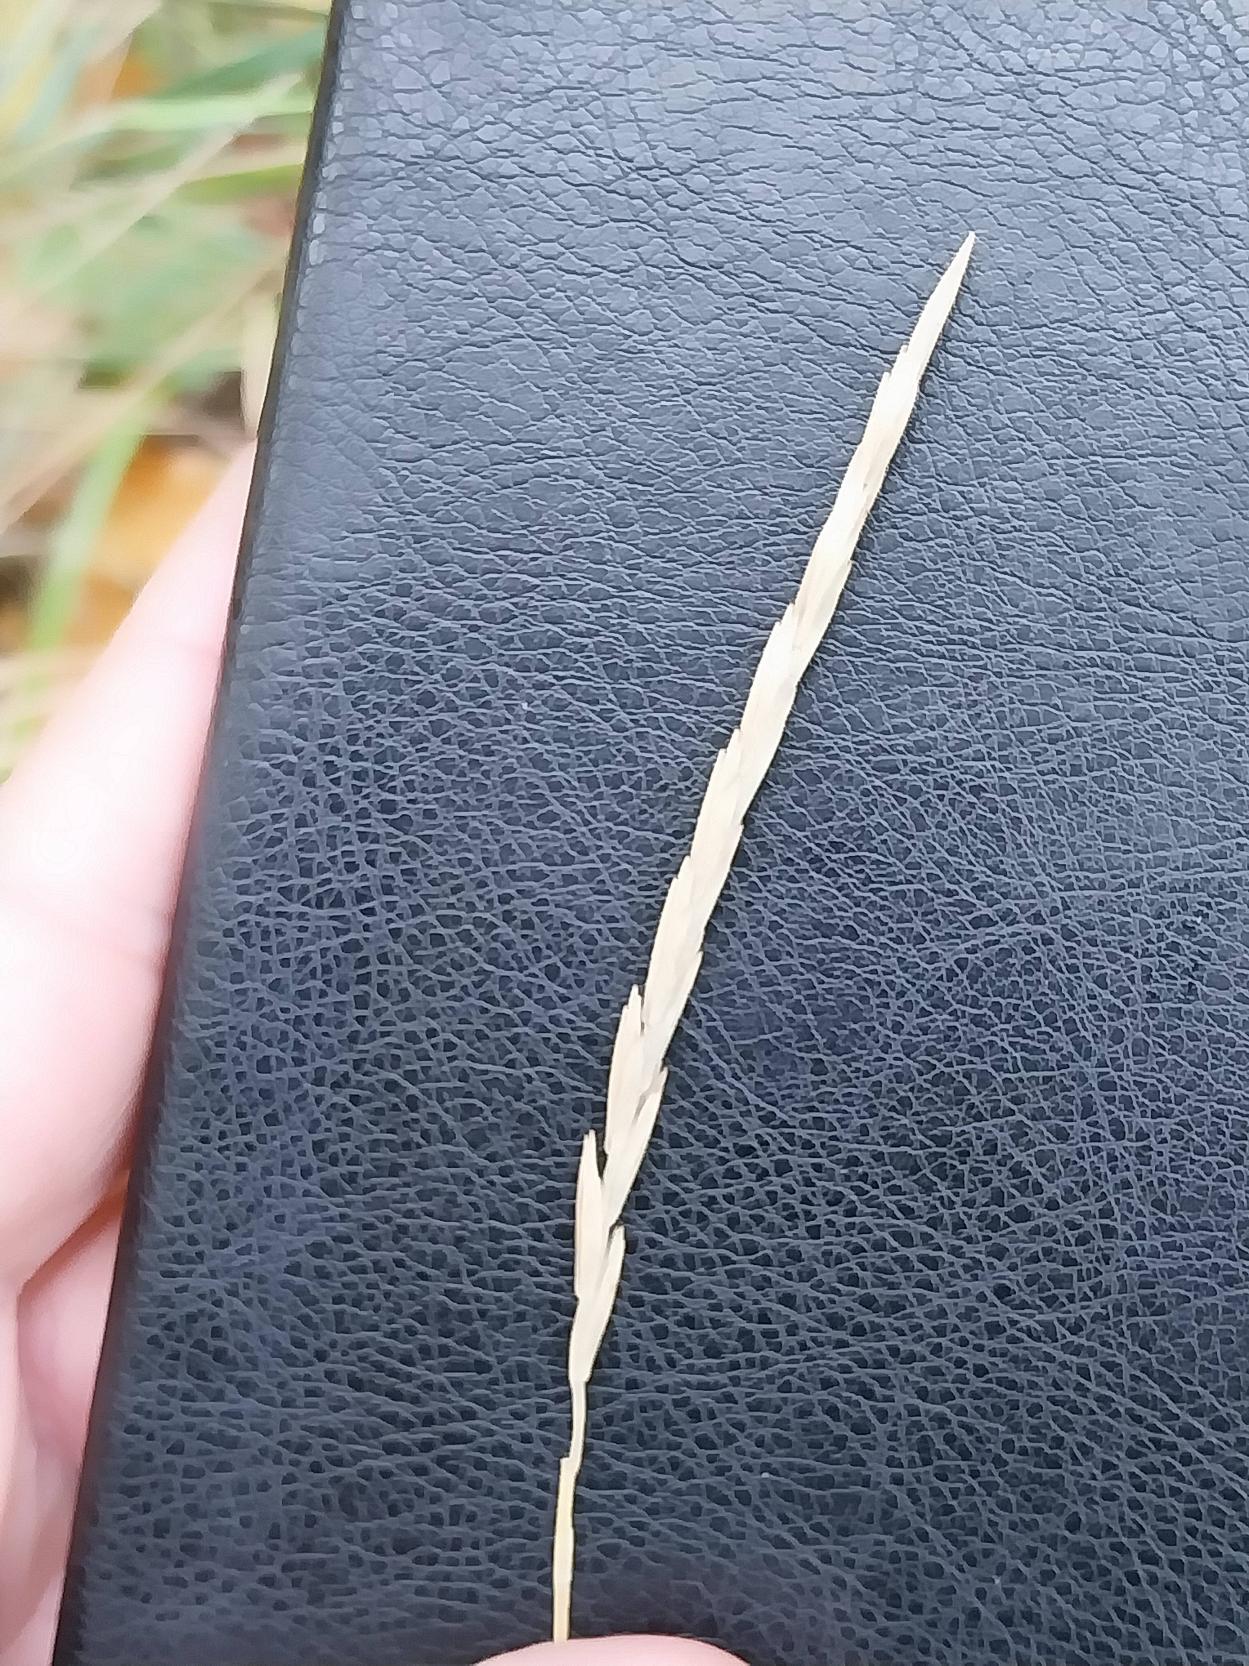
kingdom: Plantae
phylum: Tracheophyta
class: Liliopsida
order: Poales
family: Poaceae
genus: Elymus
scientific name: Elymus repens
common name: Almindelig kvik
